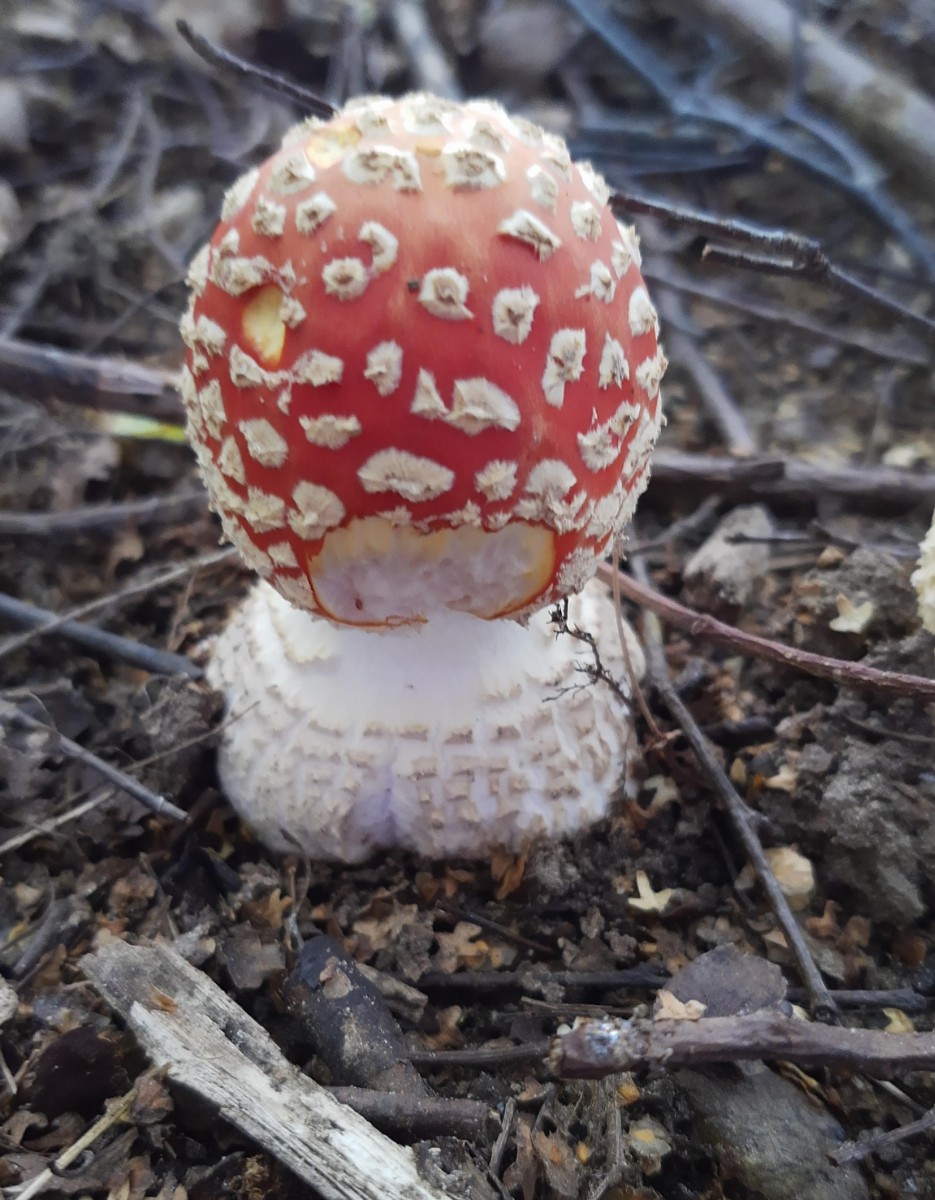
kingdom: Fungi
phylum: Basidiomycota
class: Agaricomycetes
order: Agaricales
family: Amanitaceae
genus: Amanita
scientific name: Amanita muscaria
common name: rød fluesvamp
